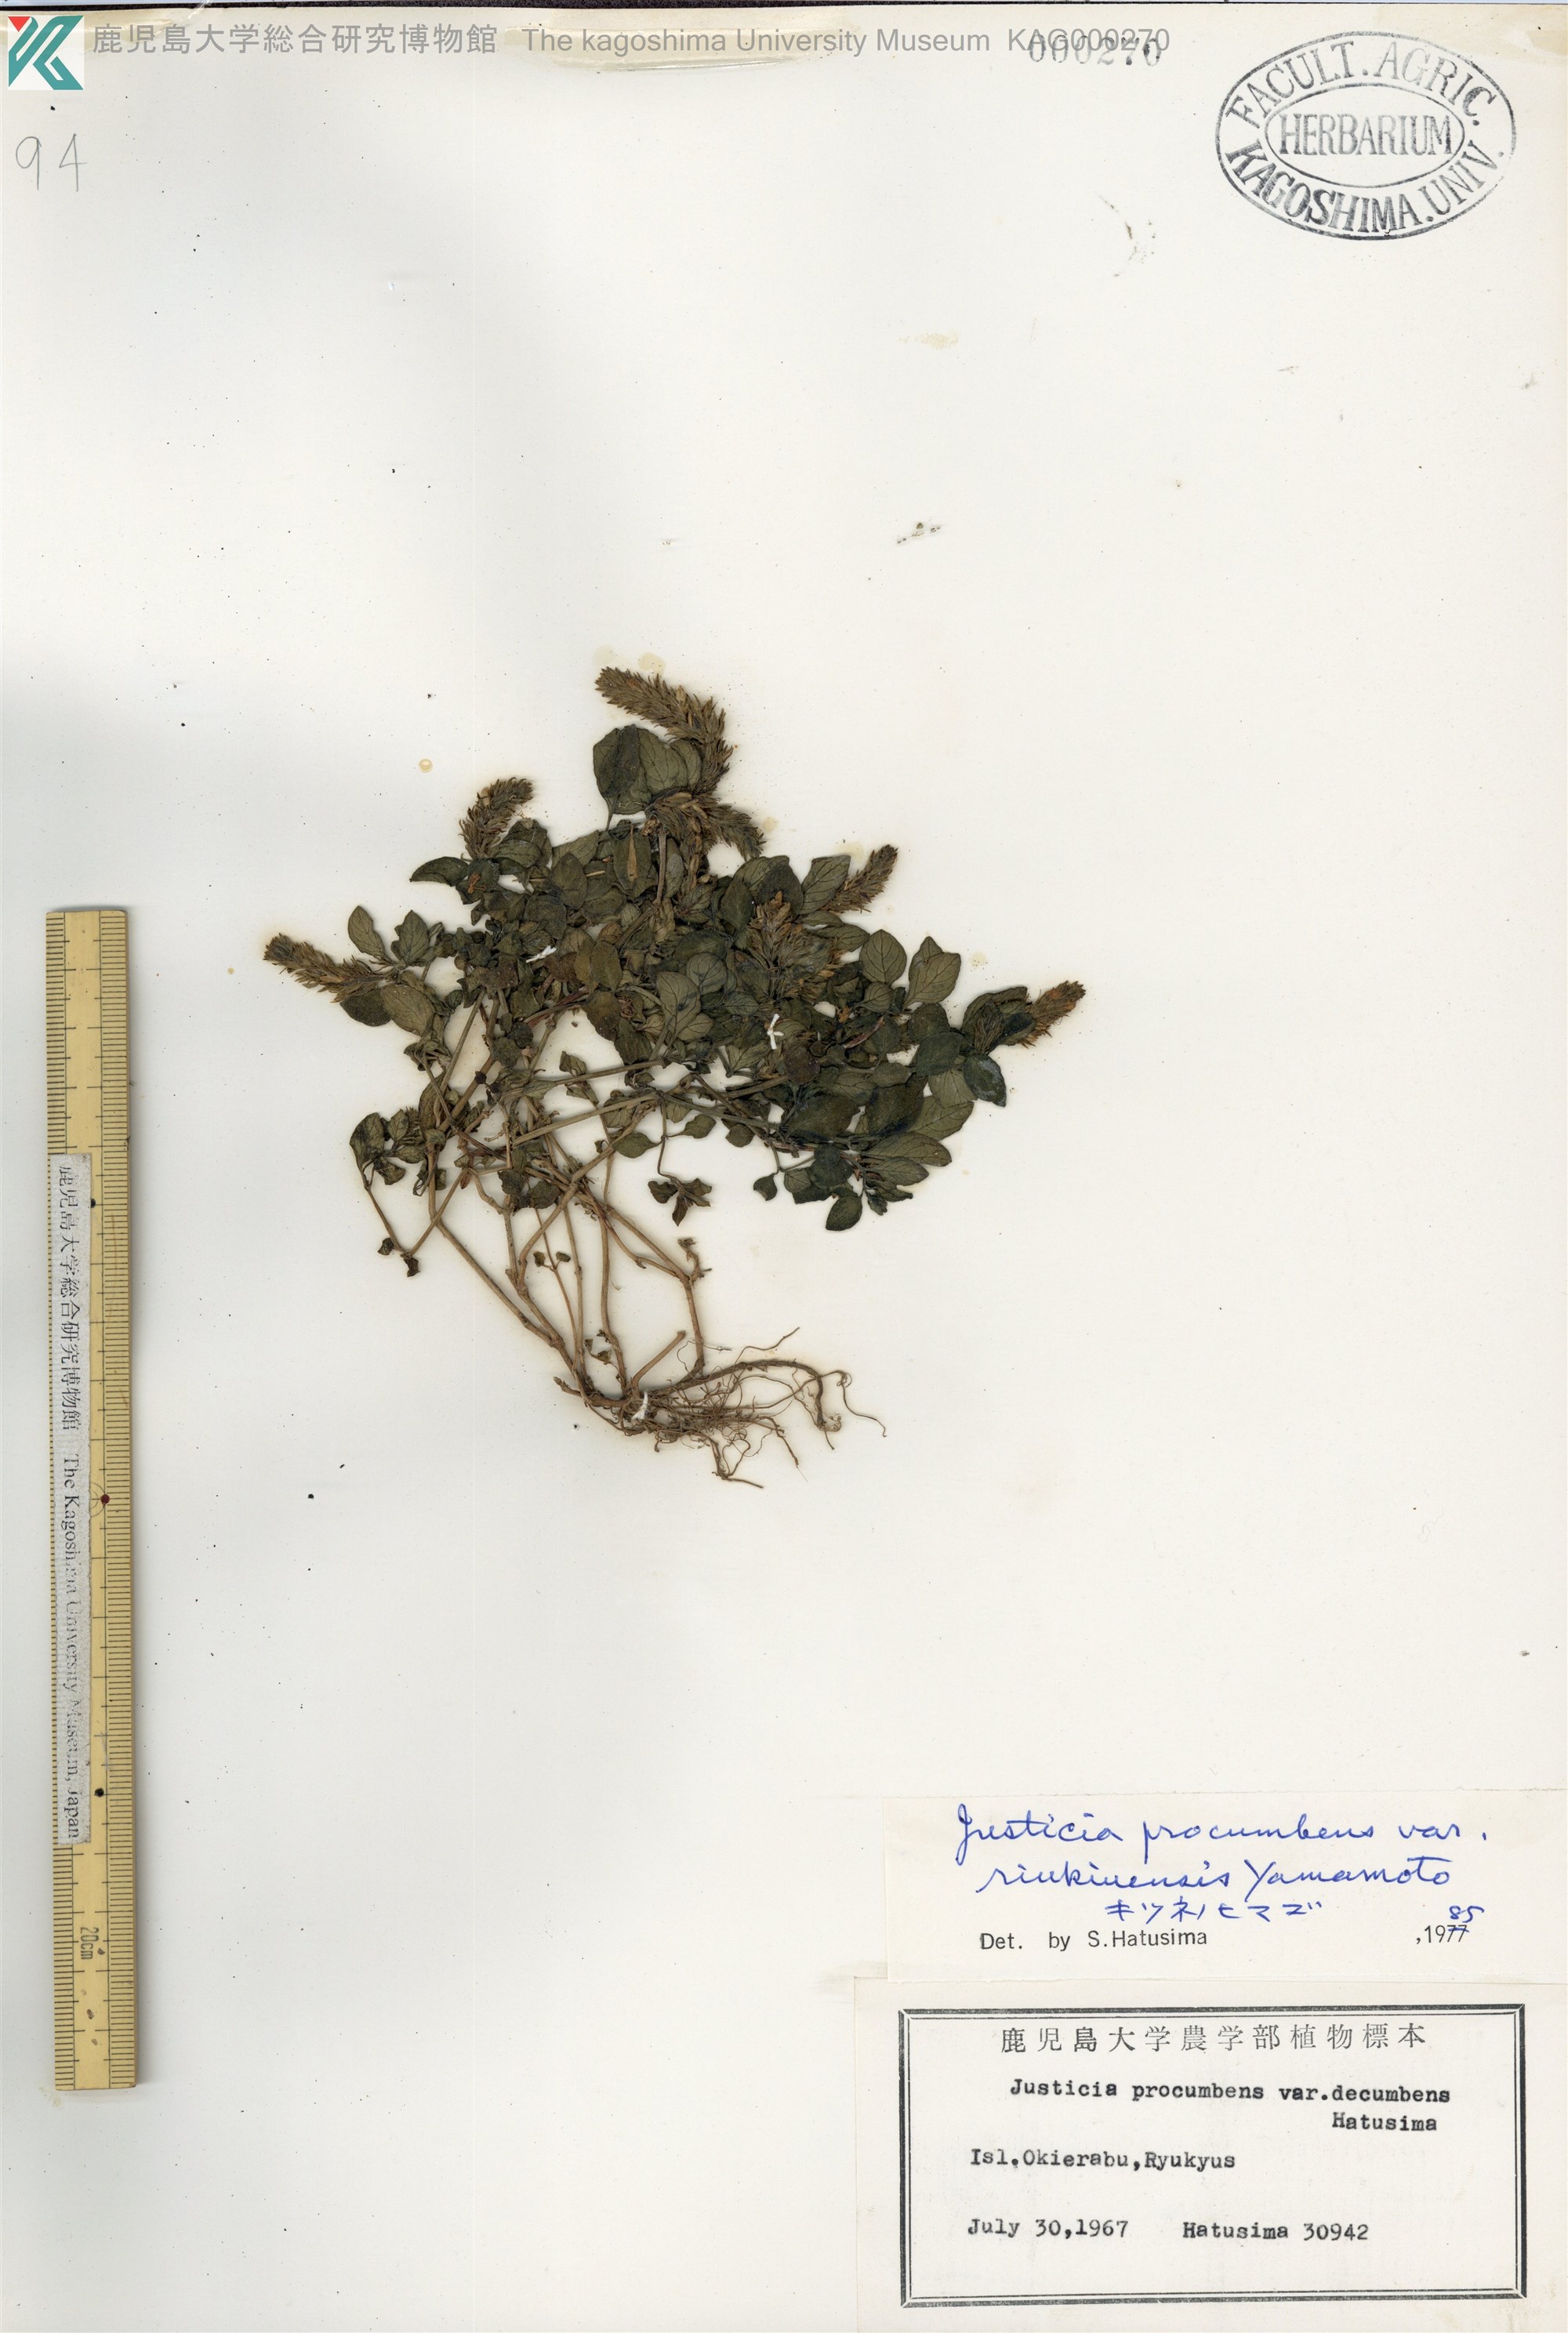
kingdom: Plantae
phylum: Tracheophyta
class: Magnoliopsida
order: Lamiales
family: Acanthaceae
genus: Rostellularia
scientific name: Rostellularia procumbens
